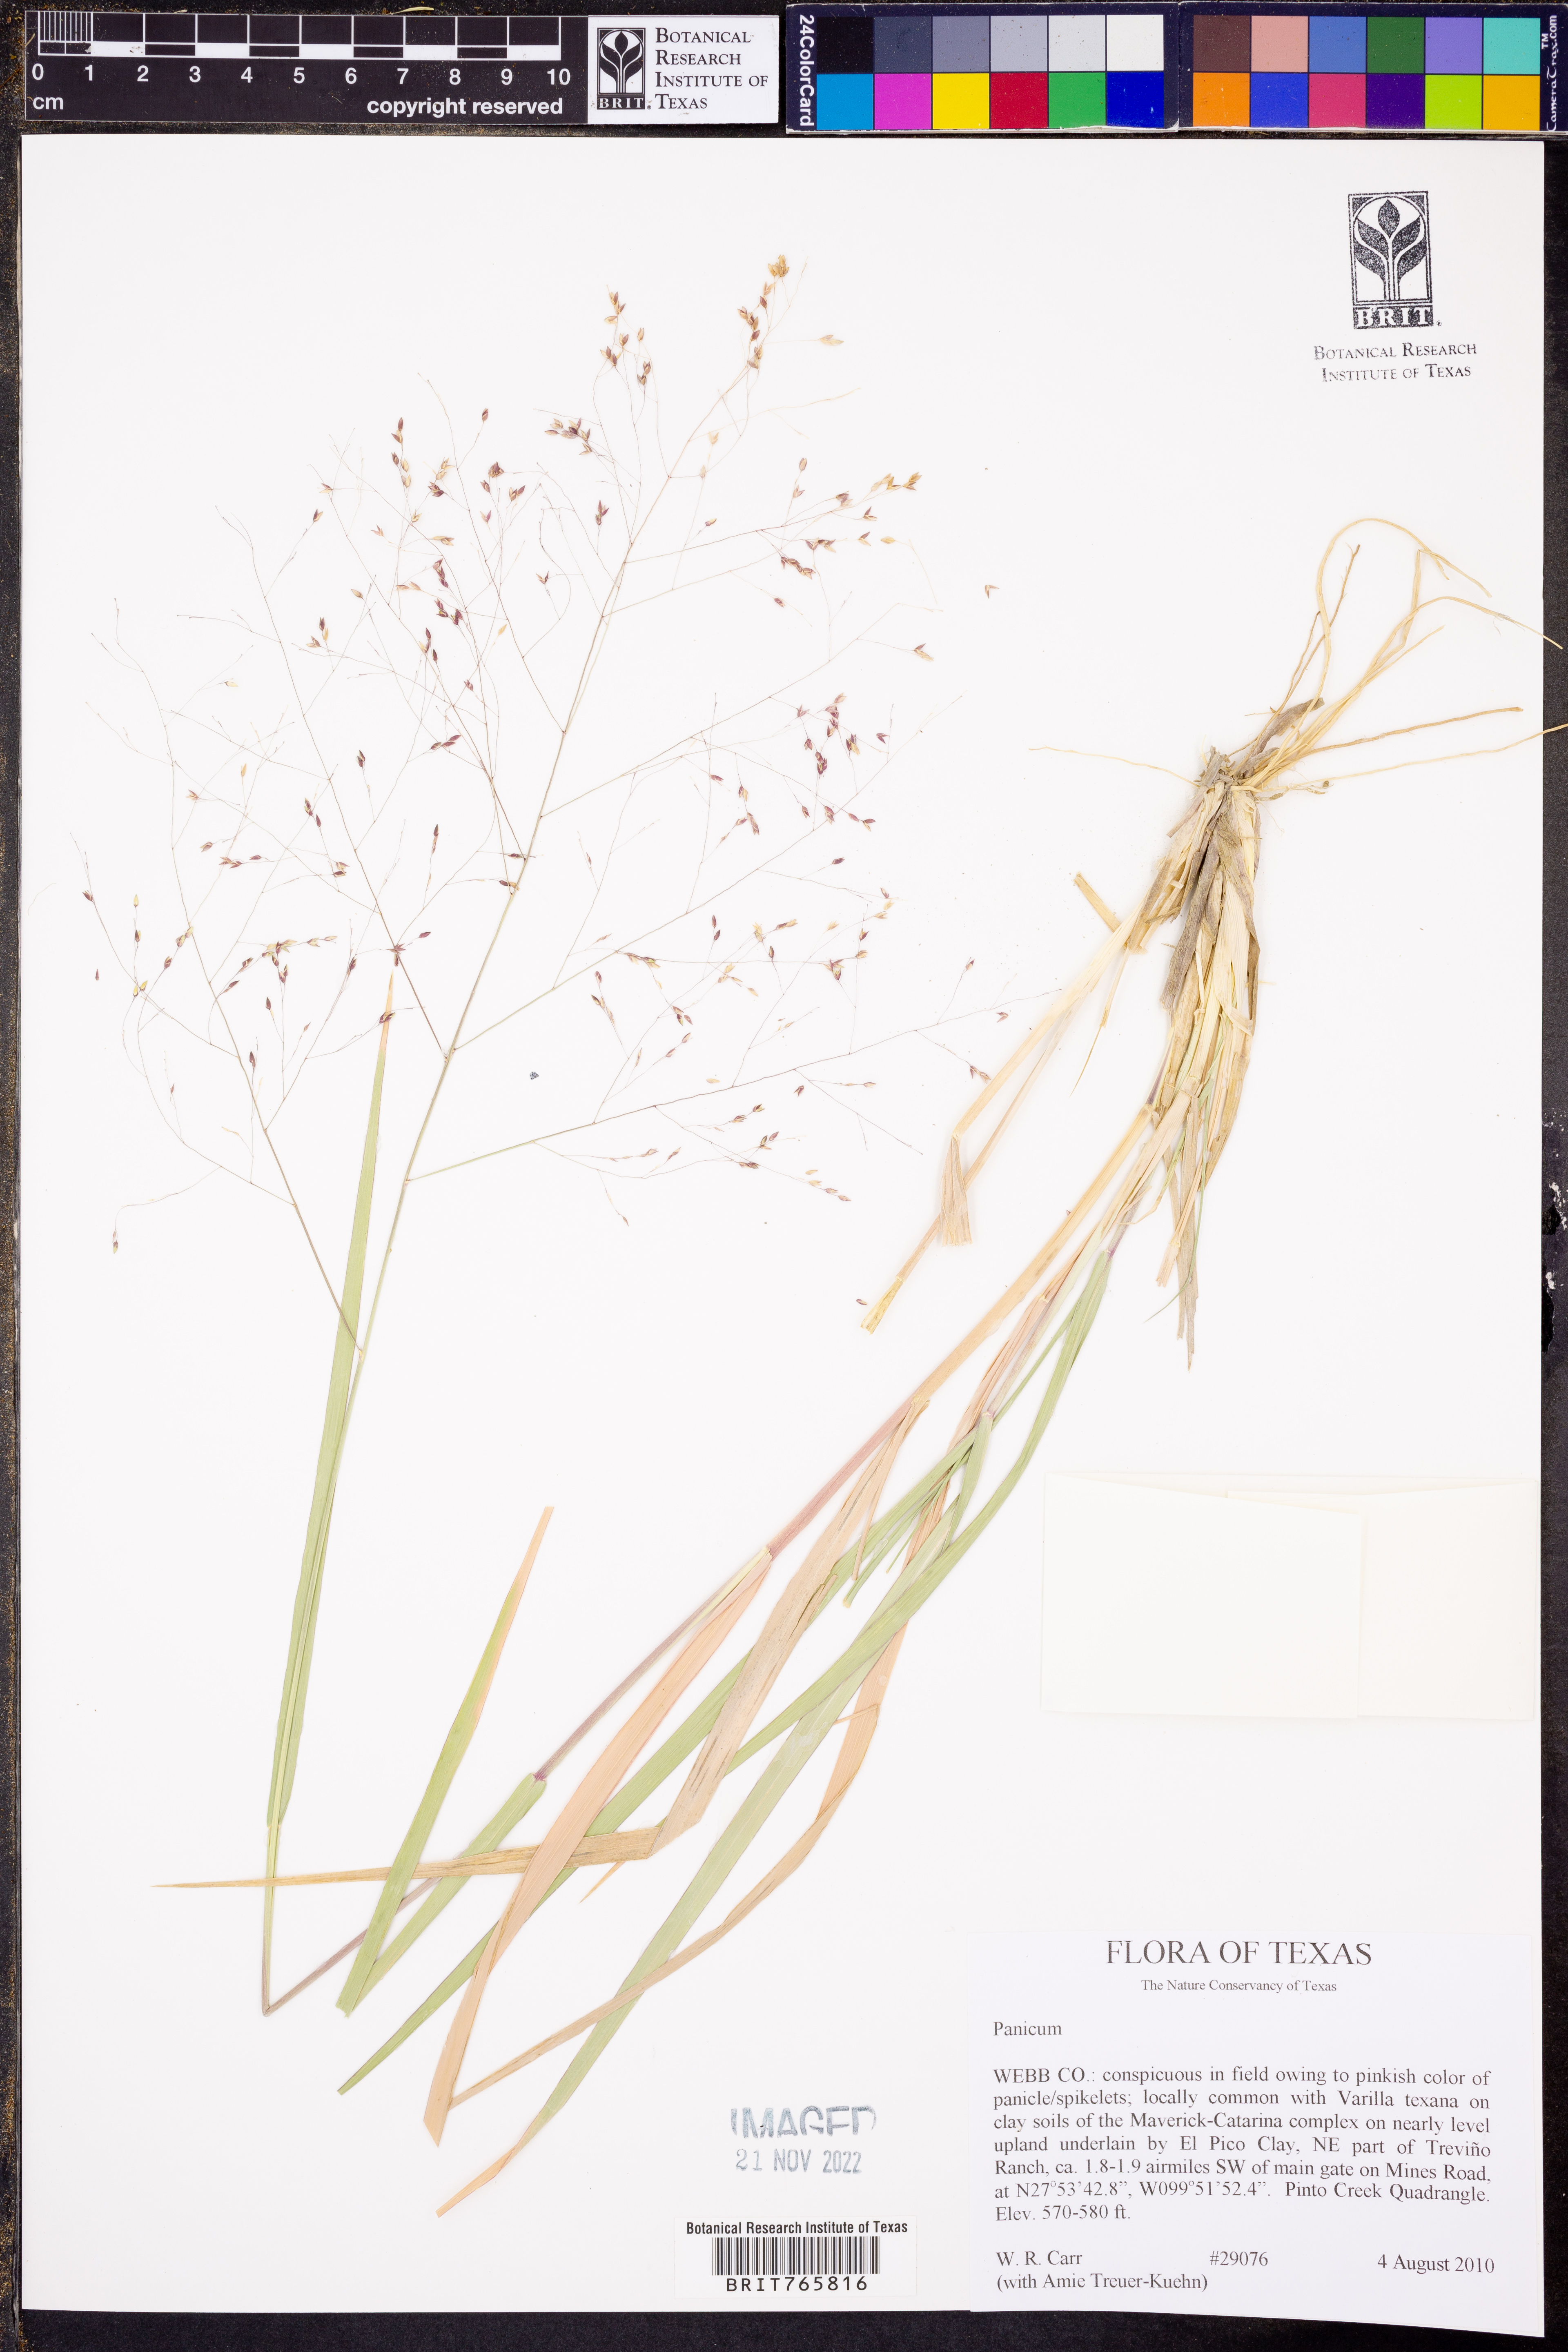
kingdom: Plantae
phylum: Tracheophyta
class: Liliopsida
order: Poales
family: Poaceae
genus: Panicum
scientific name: Panicum
